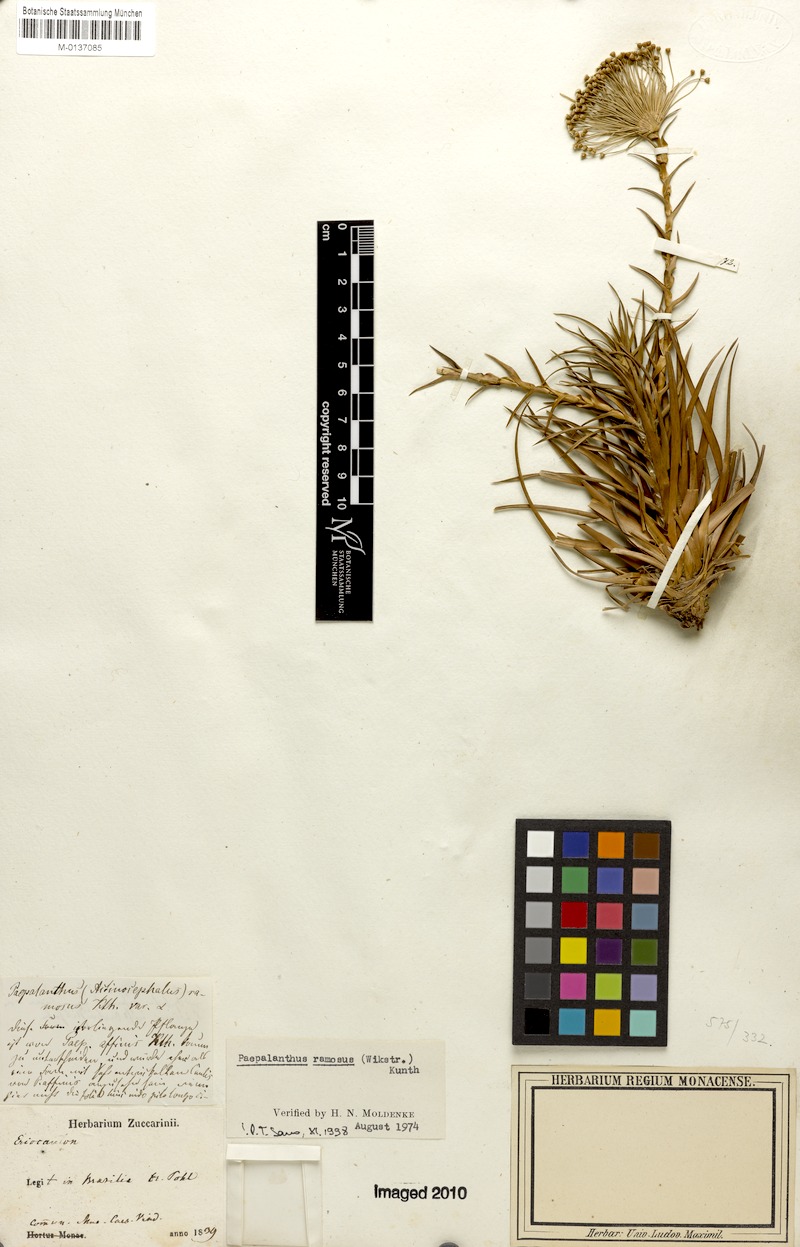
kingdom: Plantae
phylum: Tracheophyta
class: Liliopsida
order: Poales
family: Eriocaulaceae
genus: Paepalanthus
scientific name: Paepalanthus ramosus
